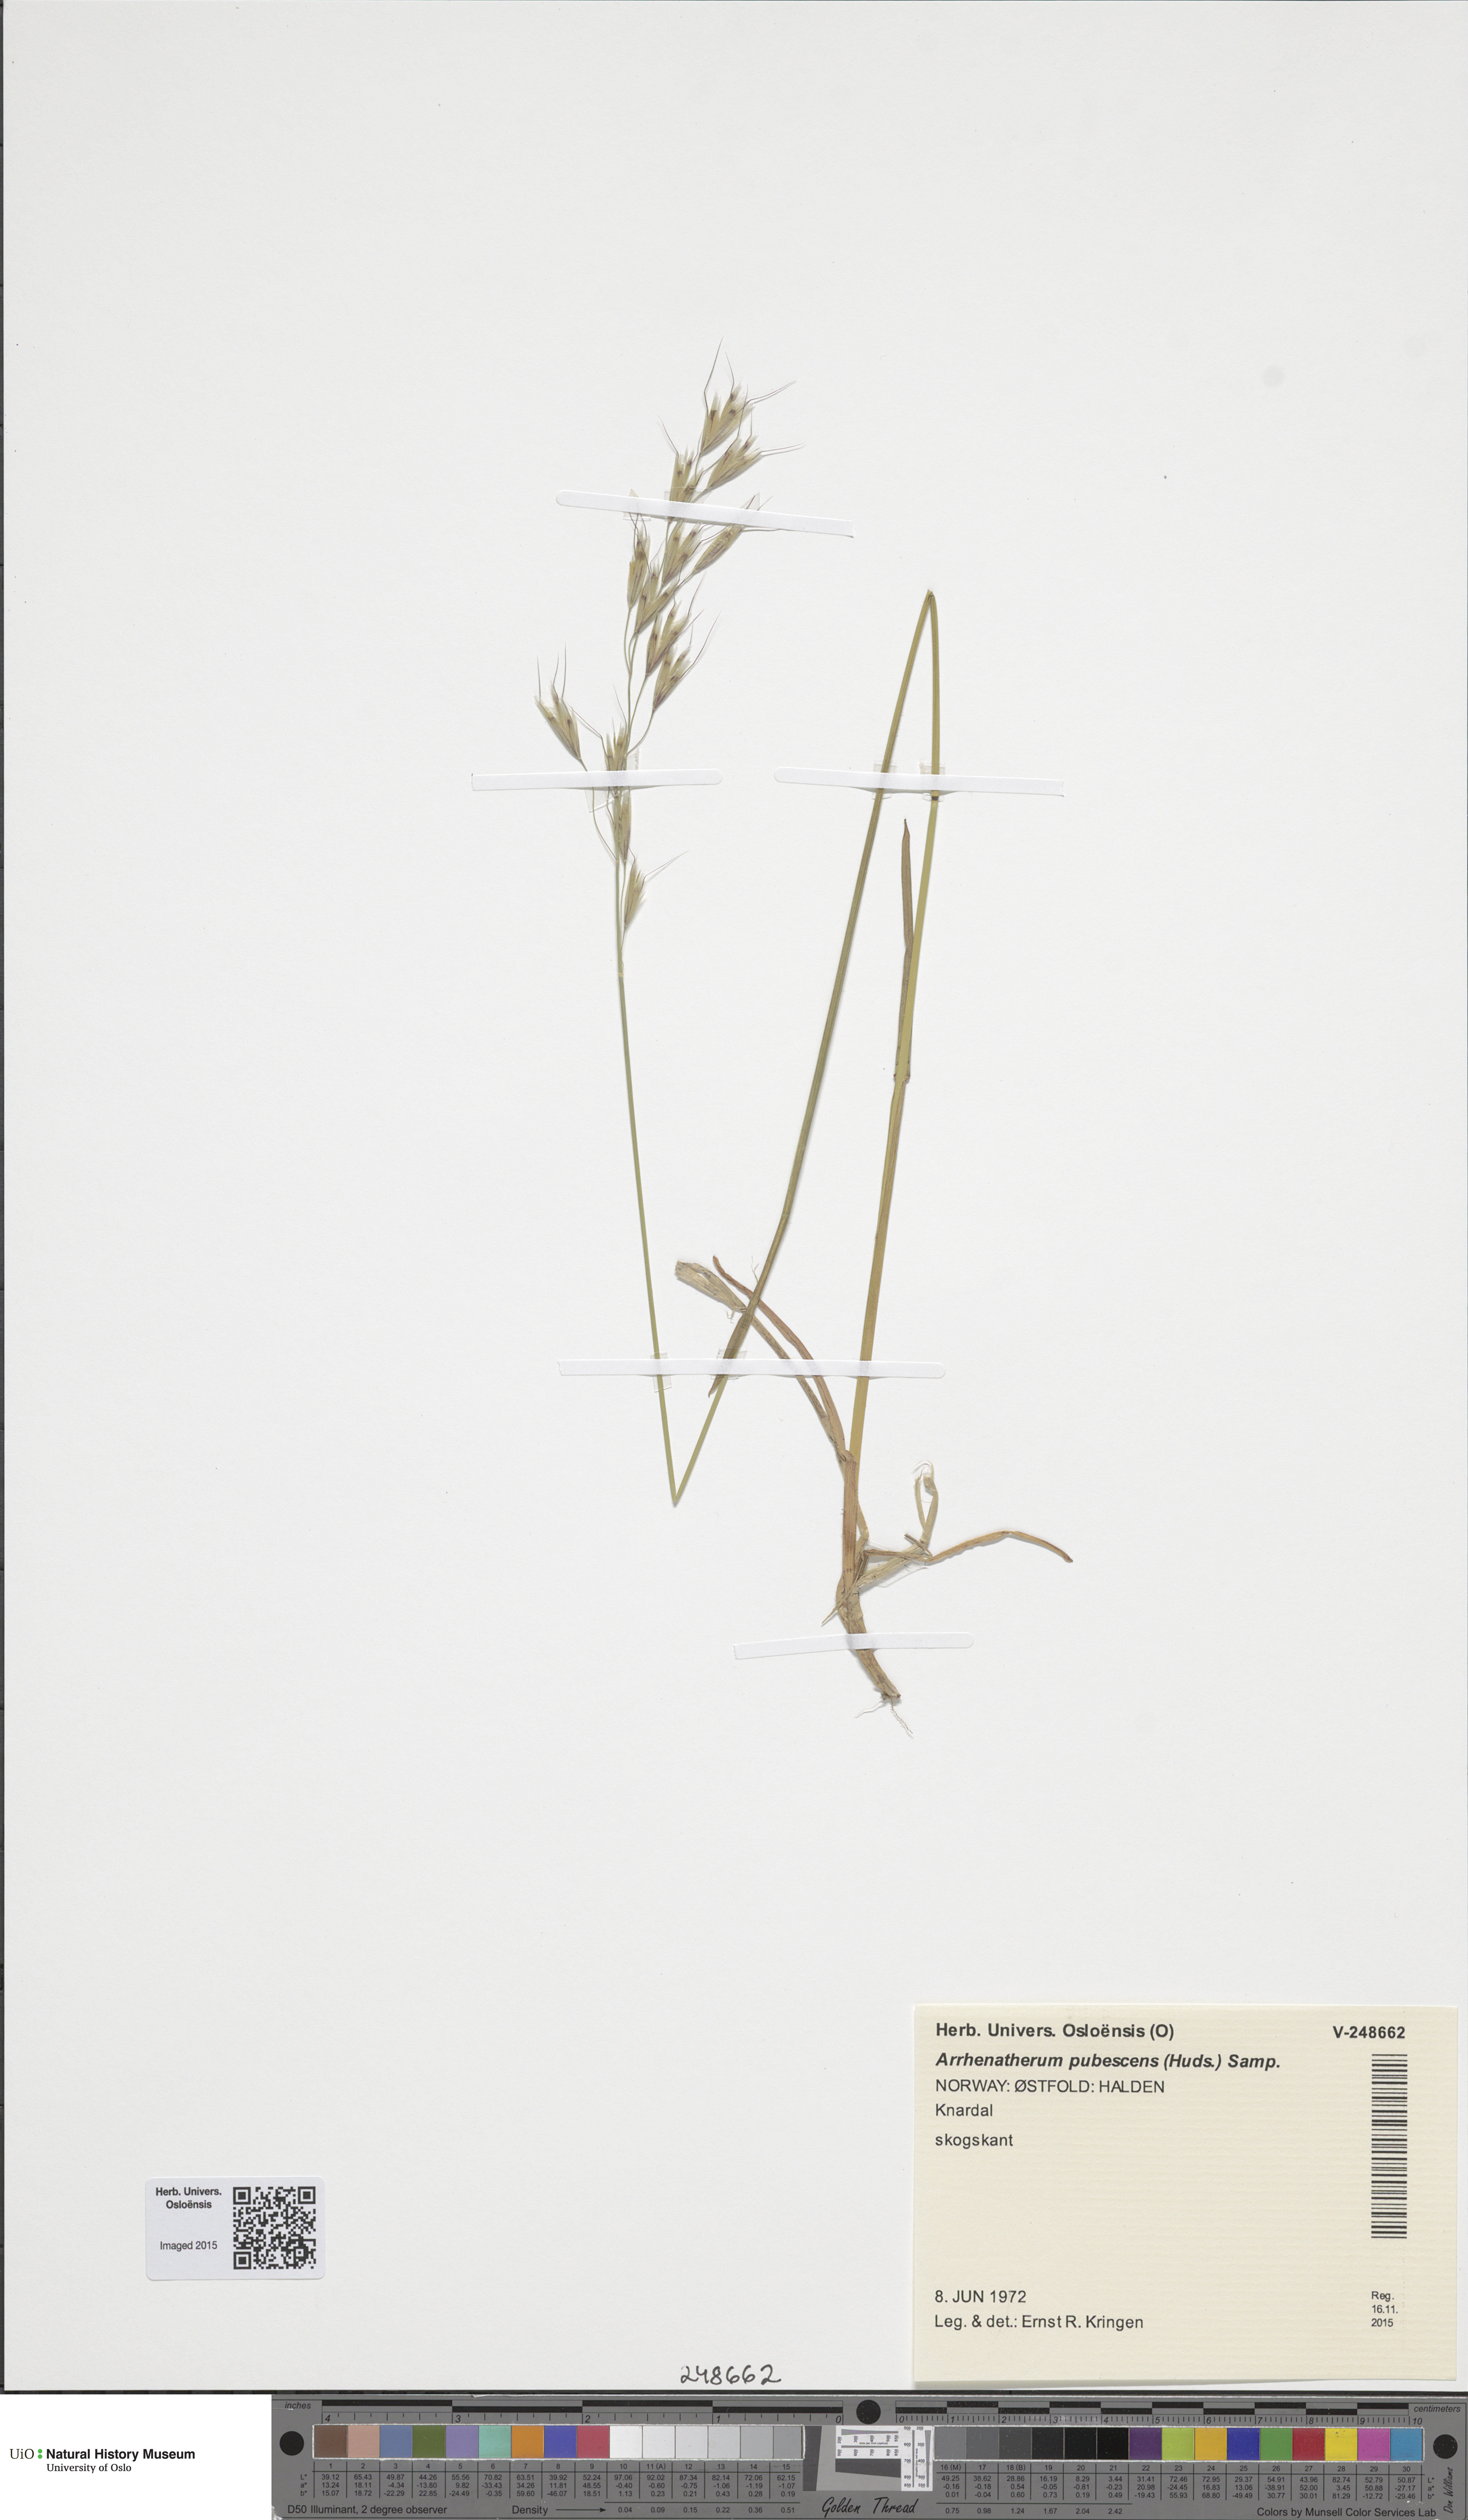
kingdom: Plantae
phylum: Tracheophyta
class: Liliopsida
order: Poales
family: Poaceae
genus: Avenula
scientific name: Avenula pubescens
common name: Downy alpine oatgrass
